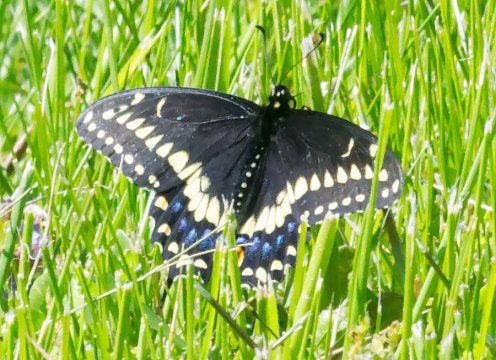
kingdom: Animalia
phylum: Arthropoda
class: Insecta
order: Lepidoptera
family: Papilionidae
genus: Papilio
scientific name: Papilio polyxenes
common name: Black Swallowtail
